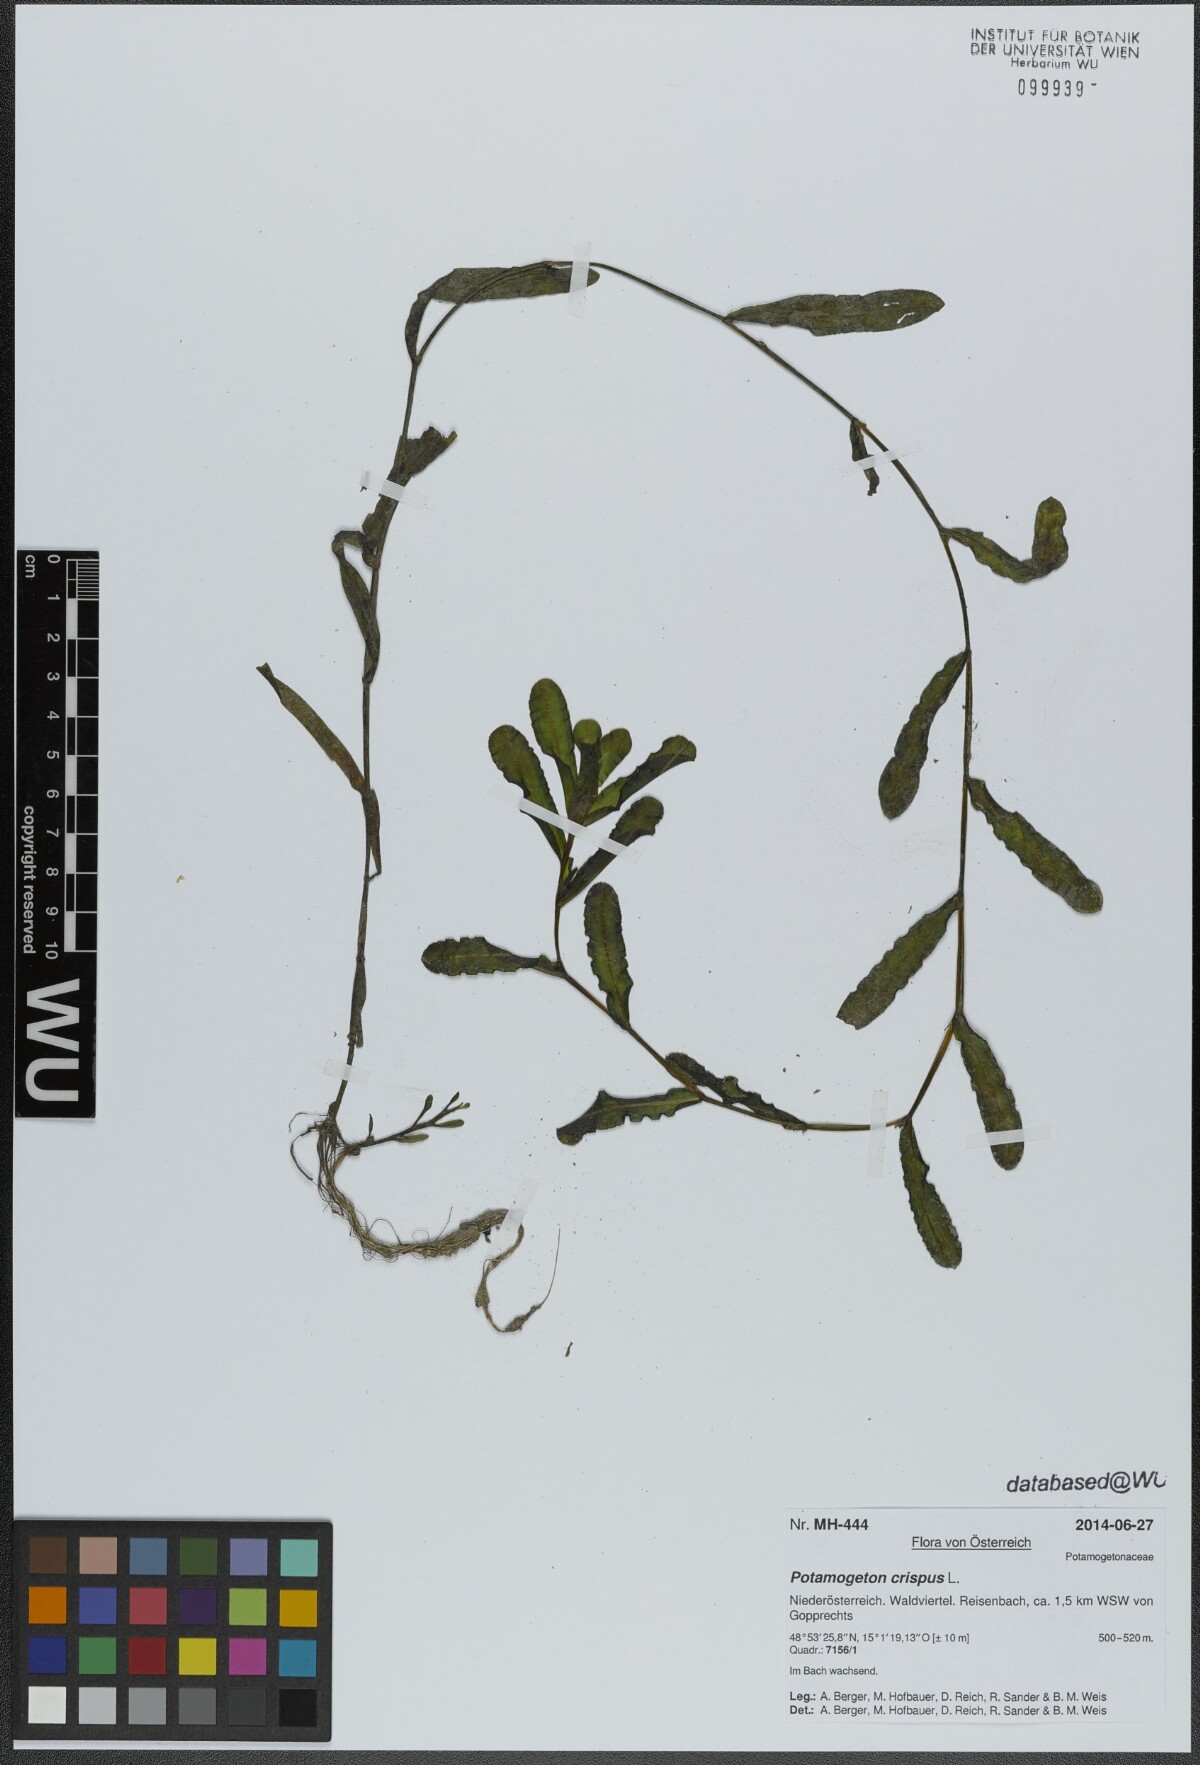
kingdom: Plantae
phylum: Tracheophyta
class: Liliopsida
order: Alismatales
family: Potamogetonaceae
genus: Potamogeton
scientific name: Potamogeton crispus
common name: Curled pondweed
